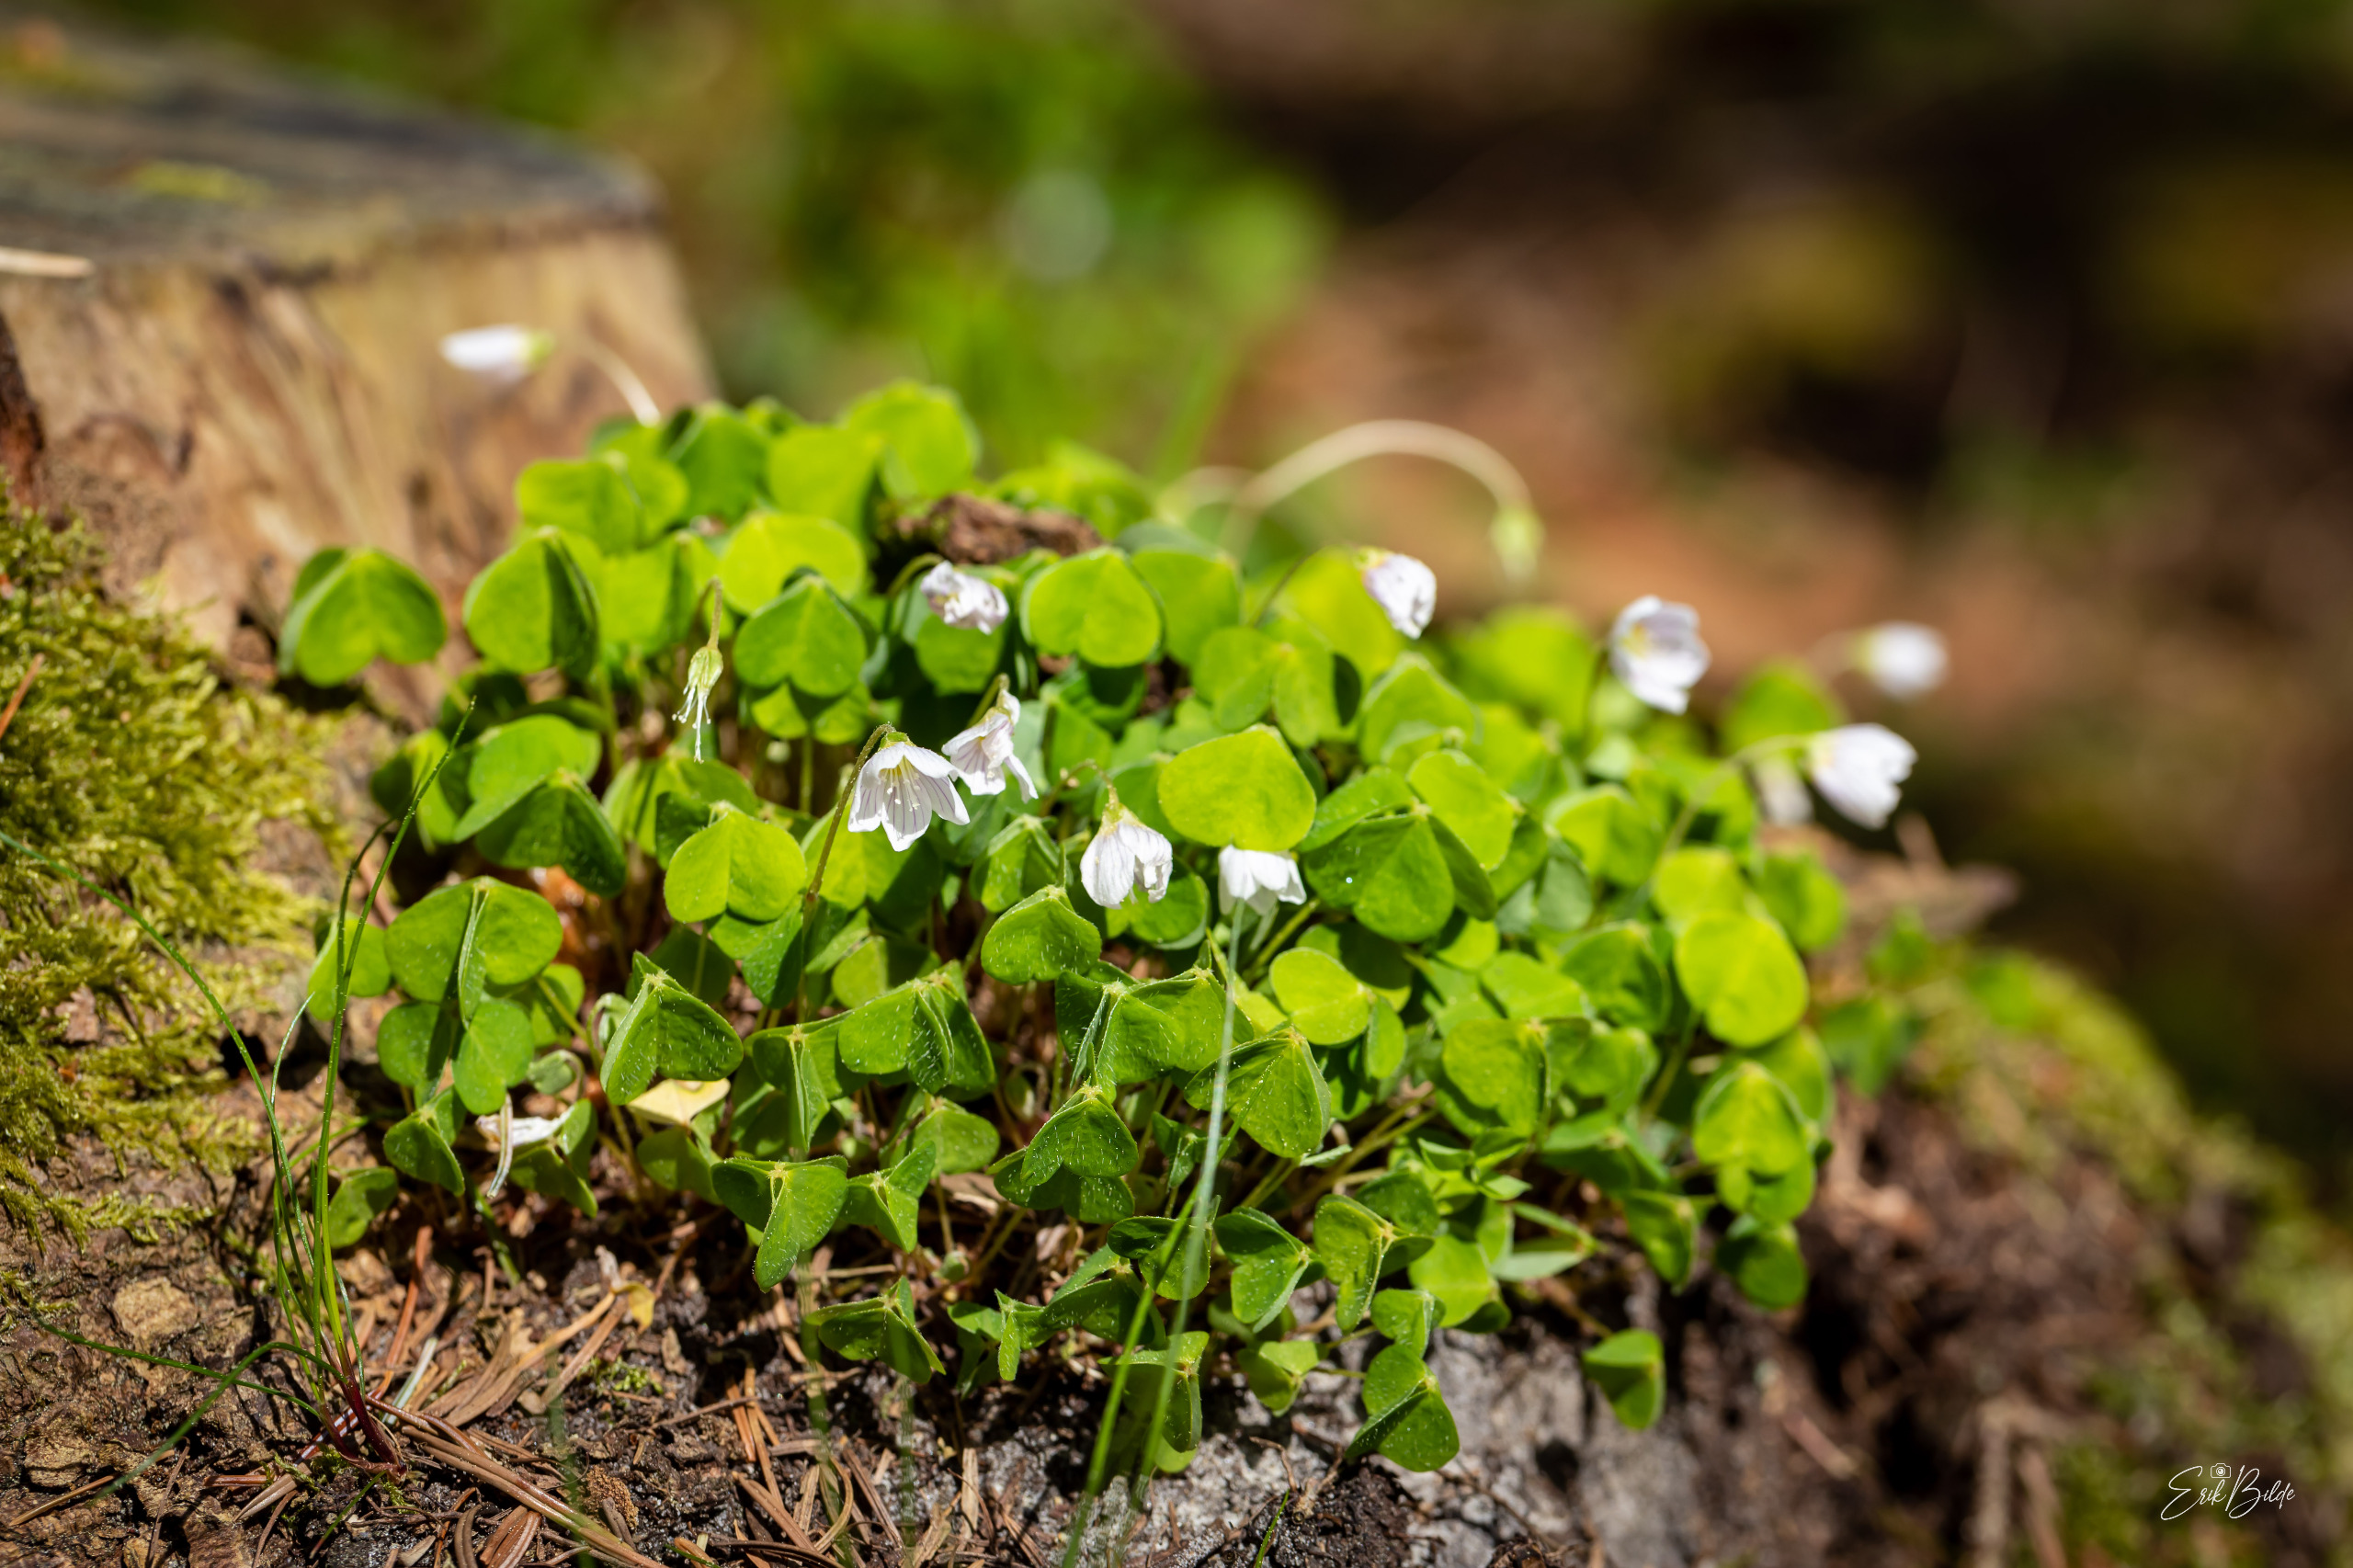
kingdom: Plantae
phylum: Tracheophyta
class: Magnoliopsida
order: Oxalidales
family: Oxalidaceae
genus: Oxalis
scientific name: Oxalis acetosella
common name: Skovsyre
